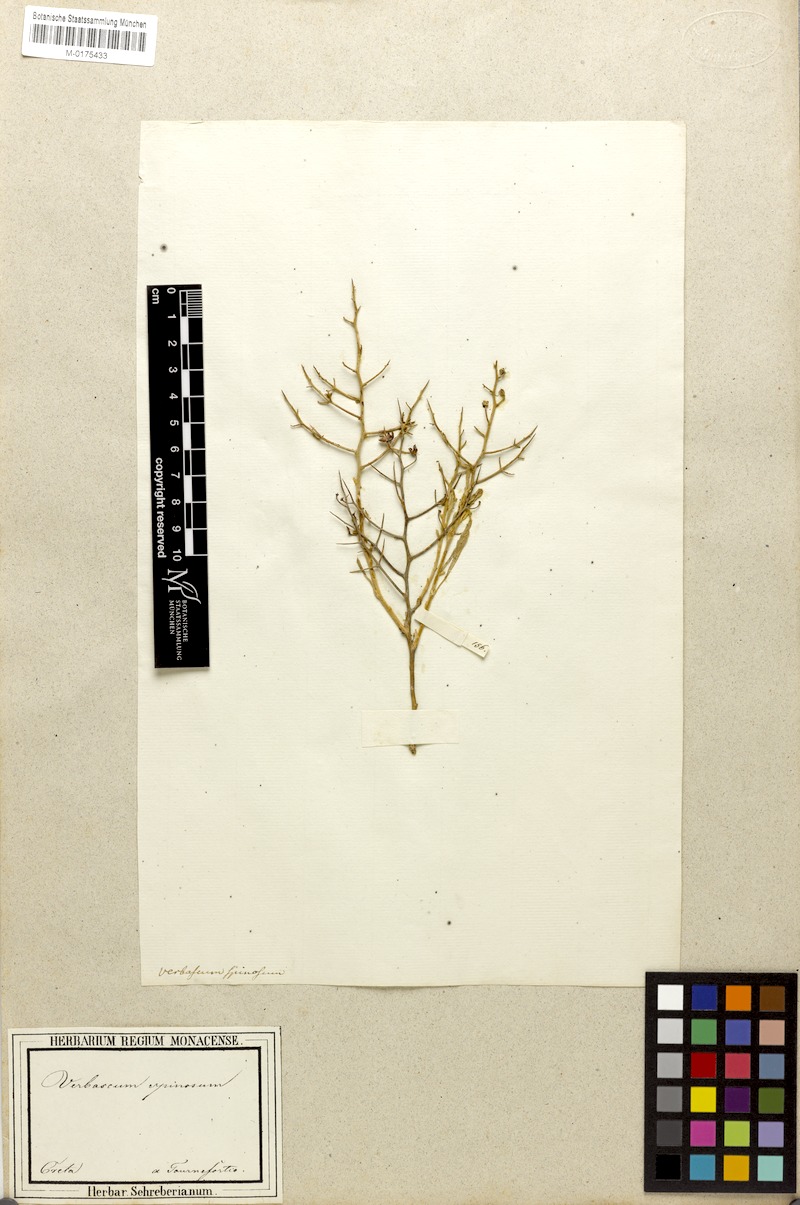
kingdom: Plantae
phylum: Tracheophyta
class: Magnoliopsida
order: Lamiales
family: Scrophulariaceae
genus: Verbascum
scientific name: Verbascum spinosum
